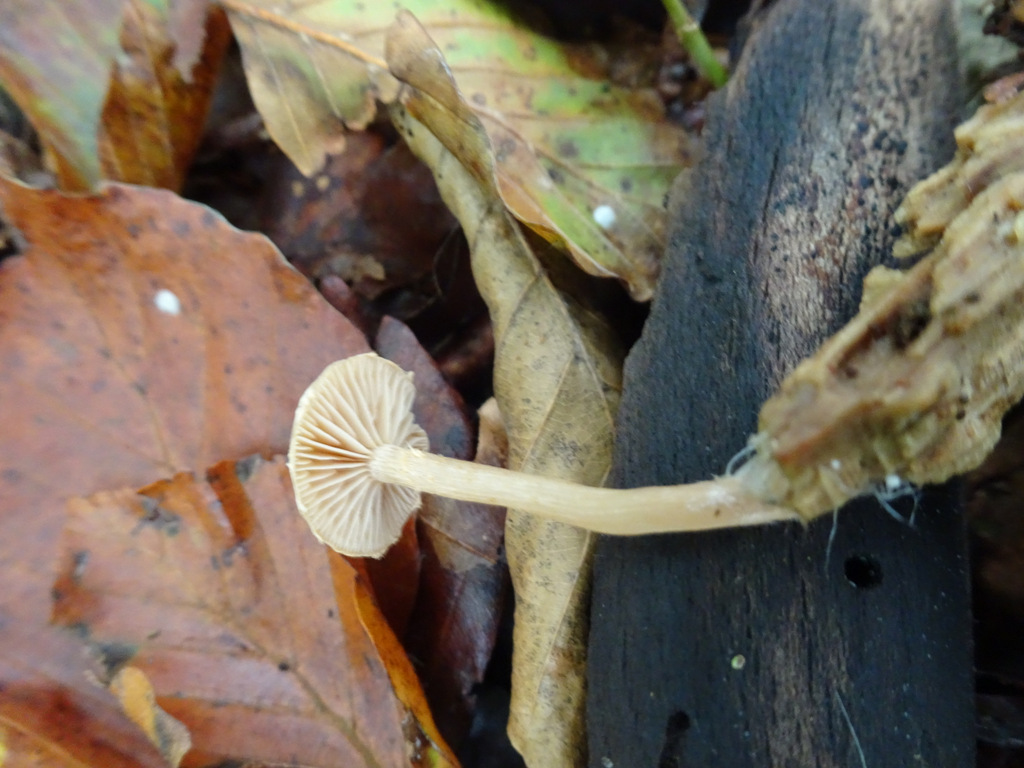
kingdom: Fungi
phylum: Basidiomycota
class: Agaricomycetes
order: Agaricales
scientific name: Agaricales
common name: champignonordenen
